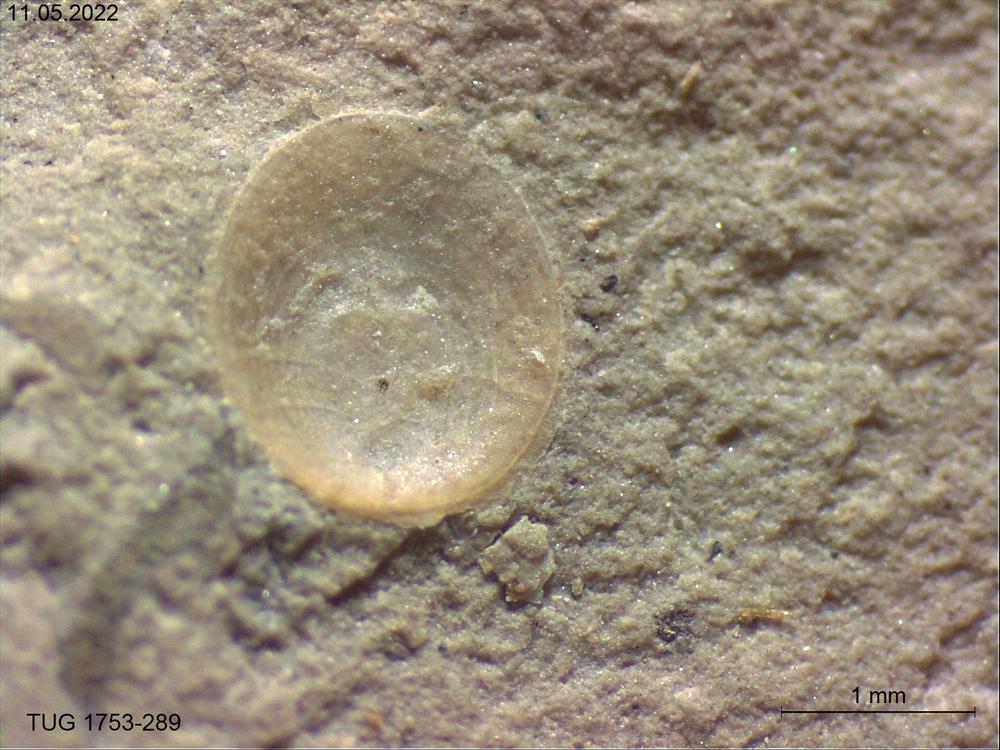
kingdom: Animalia
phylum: Brachiopoda
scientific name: Brachiopoda
